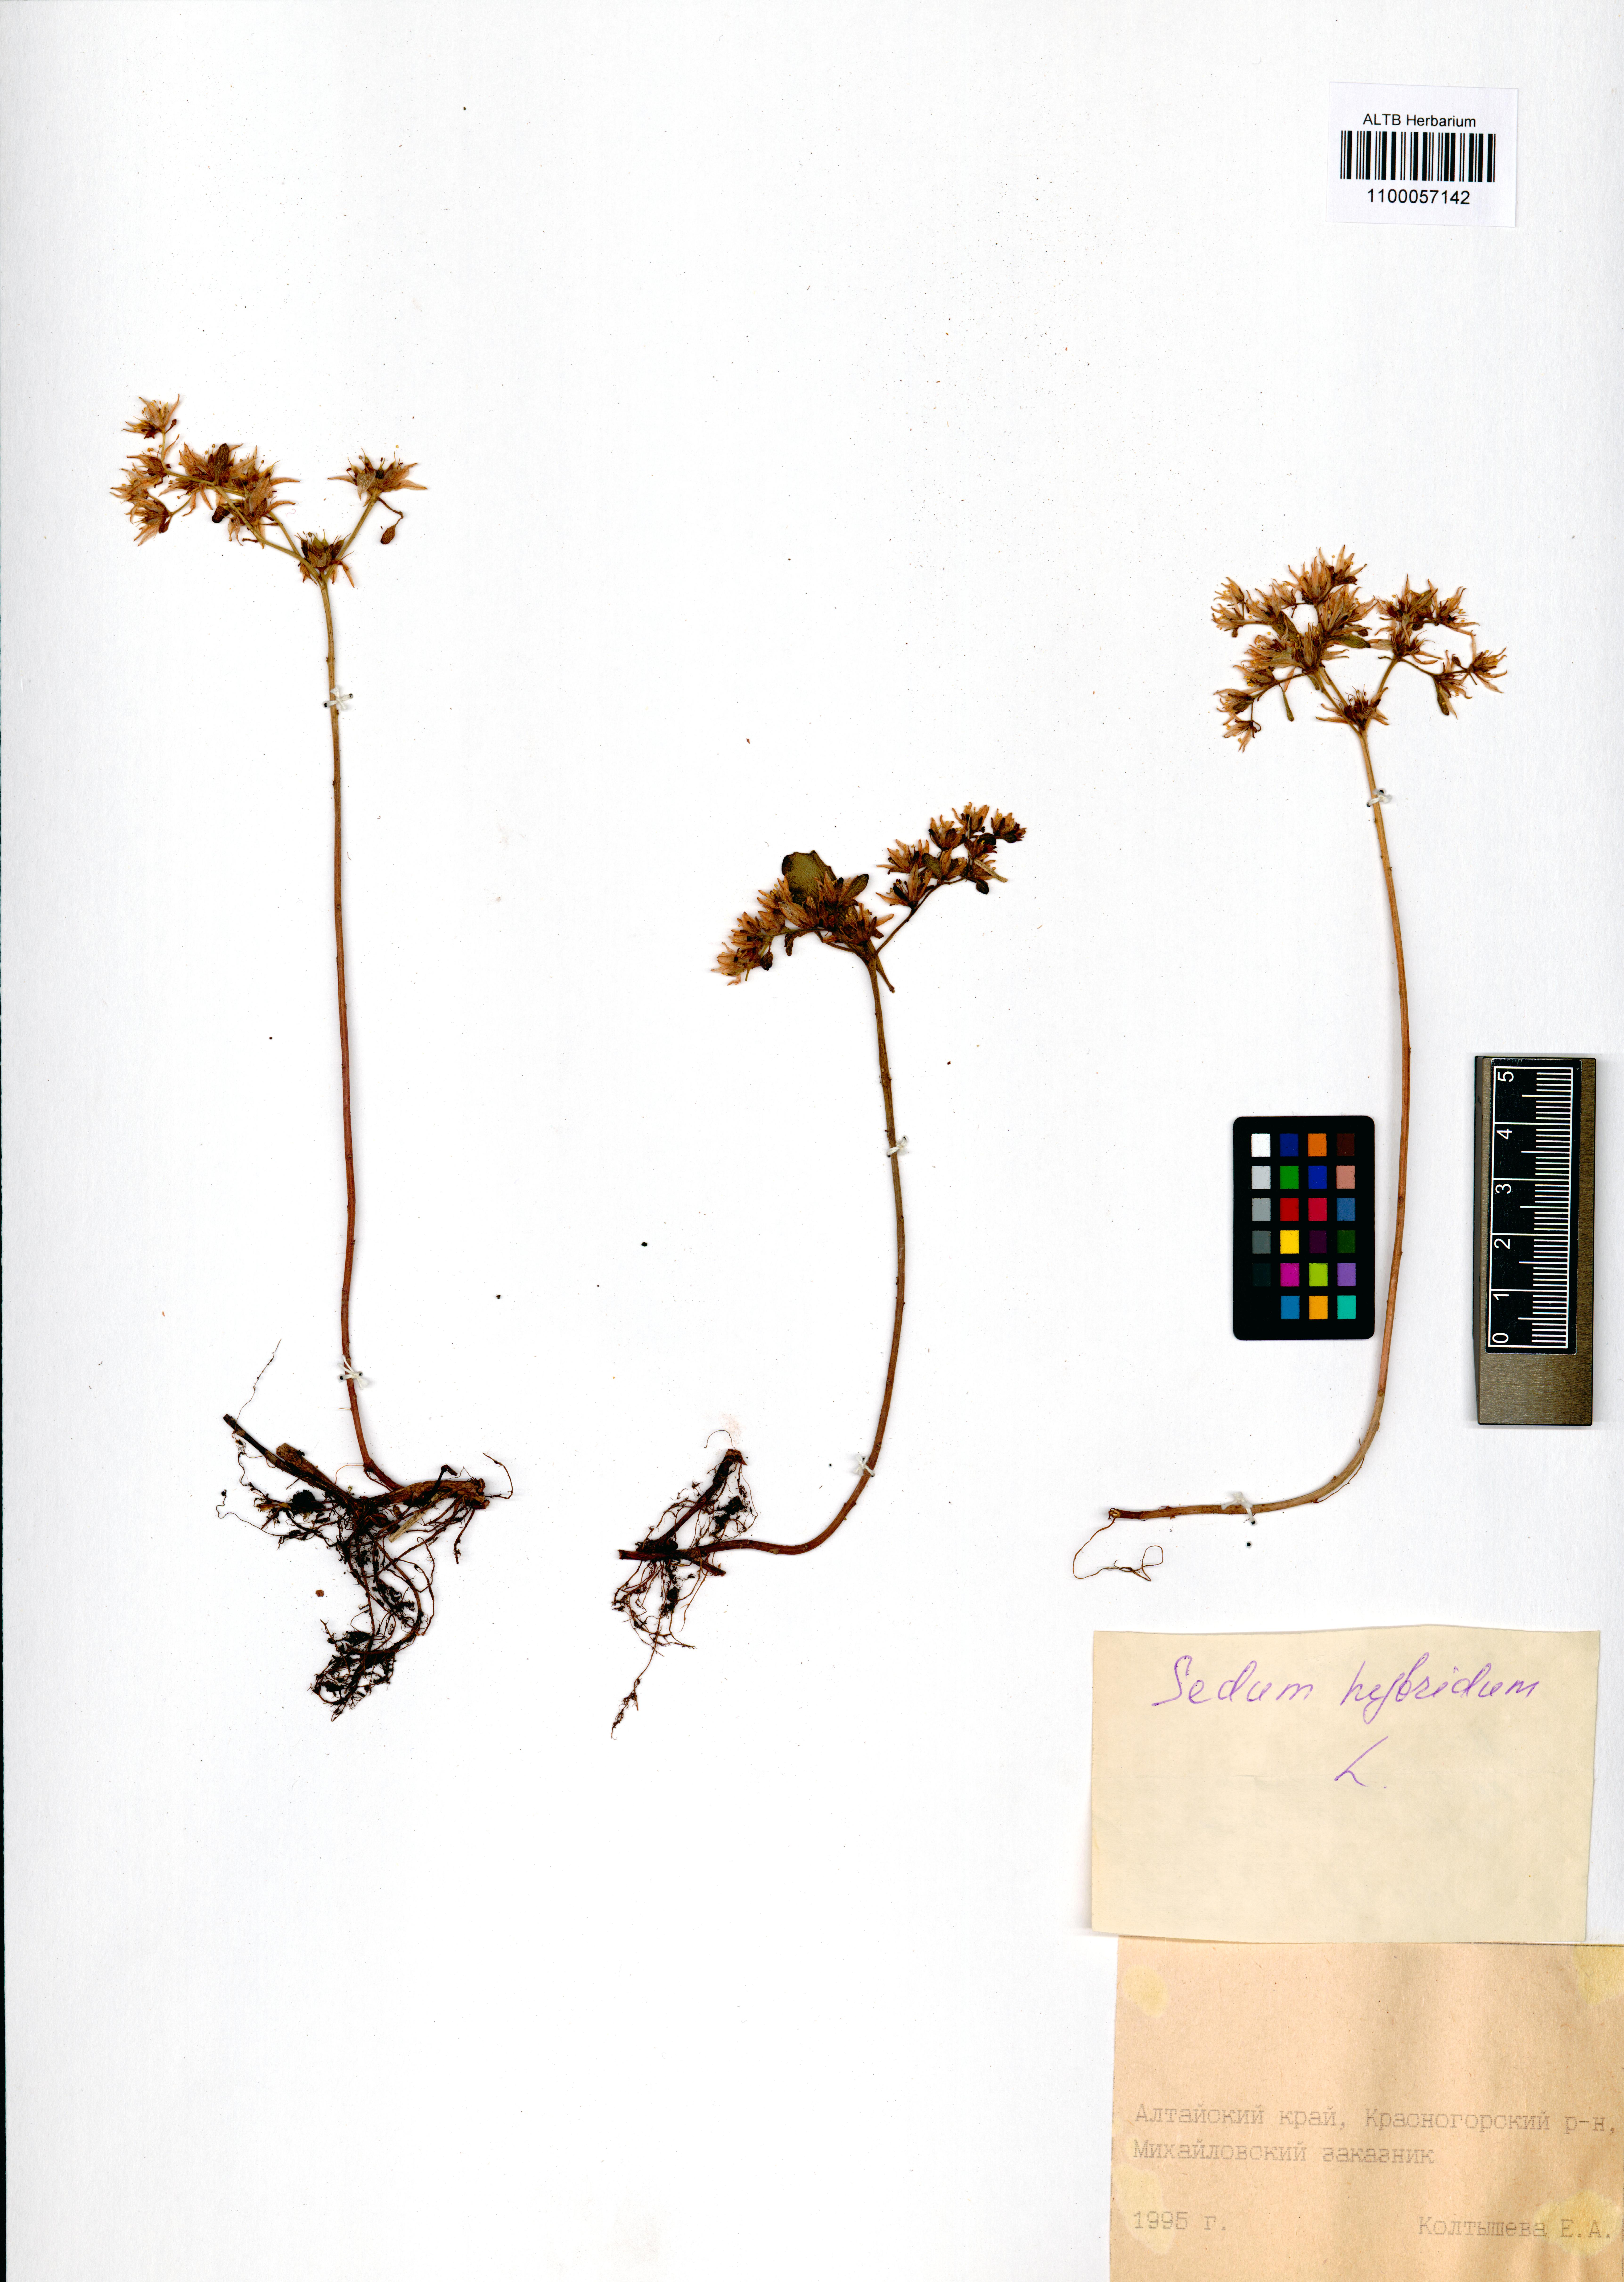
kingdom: Plantae
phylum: Tracheophyta
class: Magnoliopsida
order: Saxifragales
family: Crassulaceae
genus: Phedimus
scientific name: Phedimus hybridus
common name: Hybrid stonecrop
